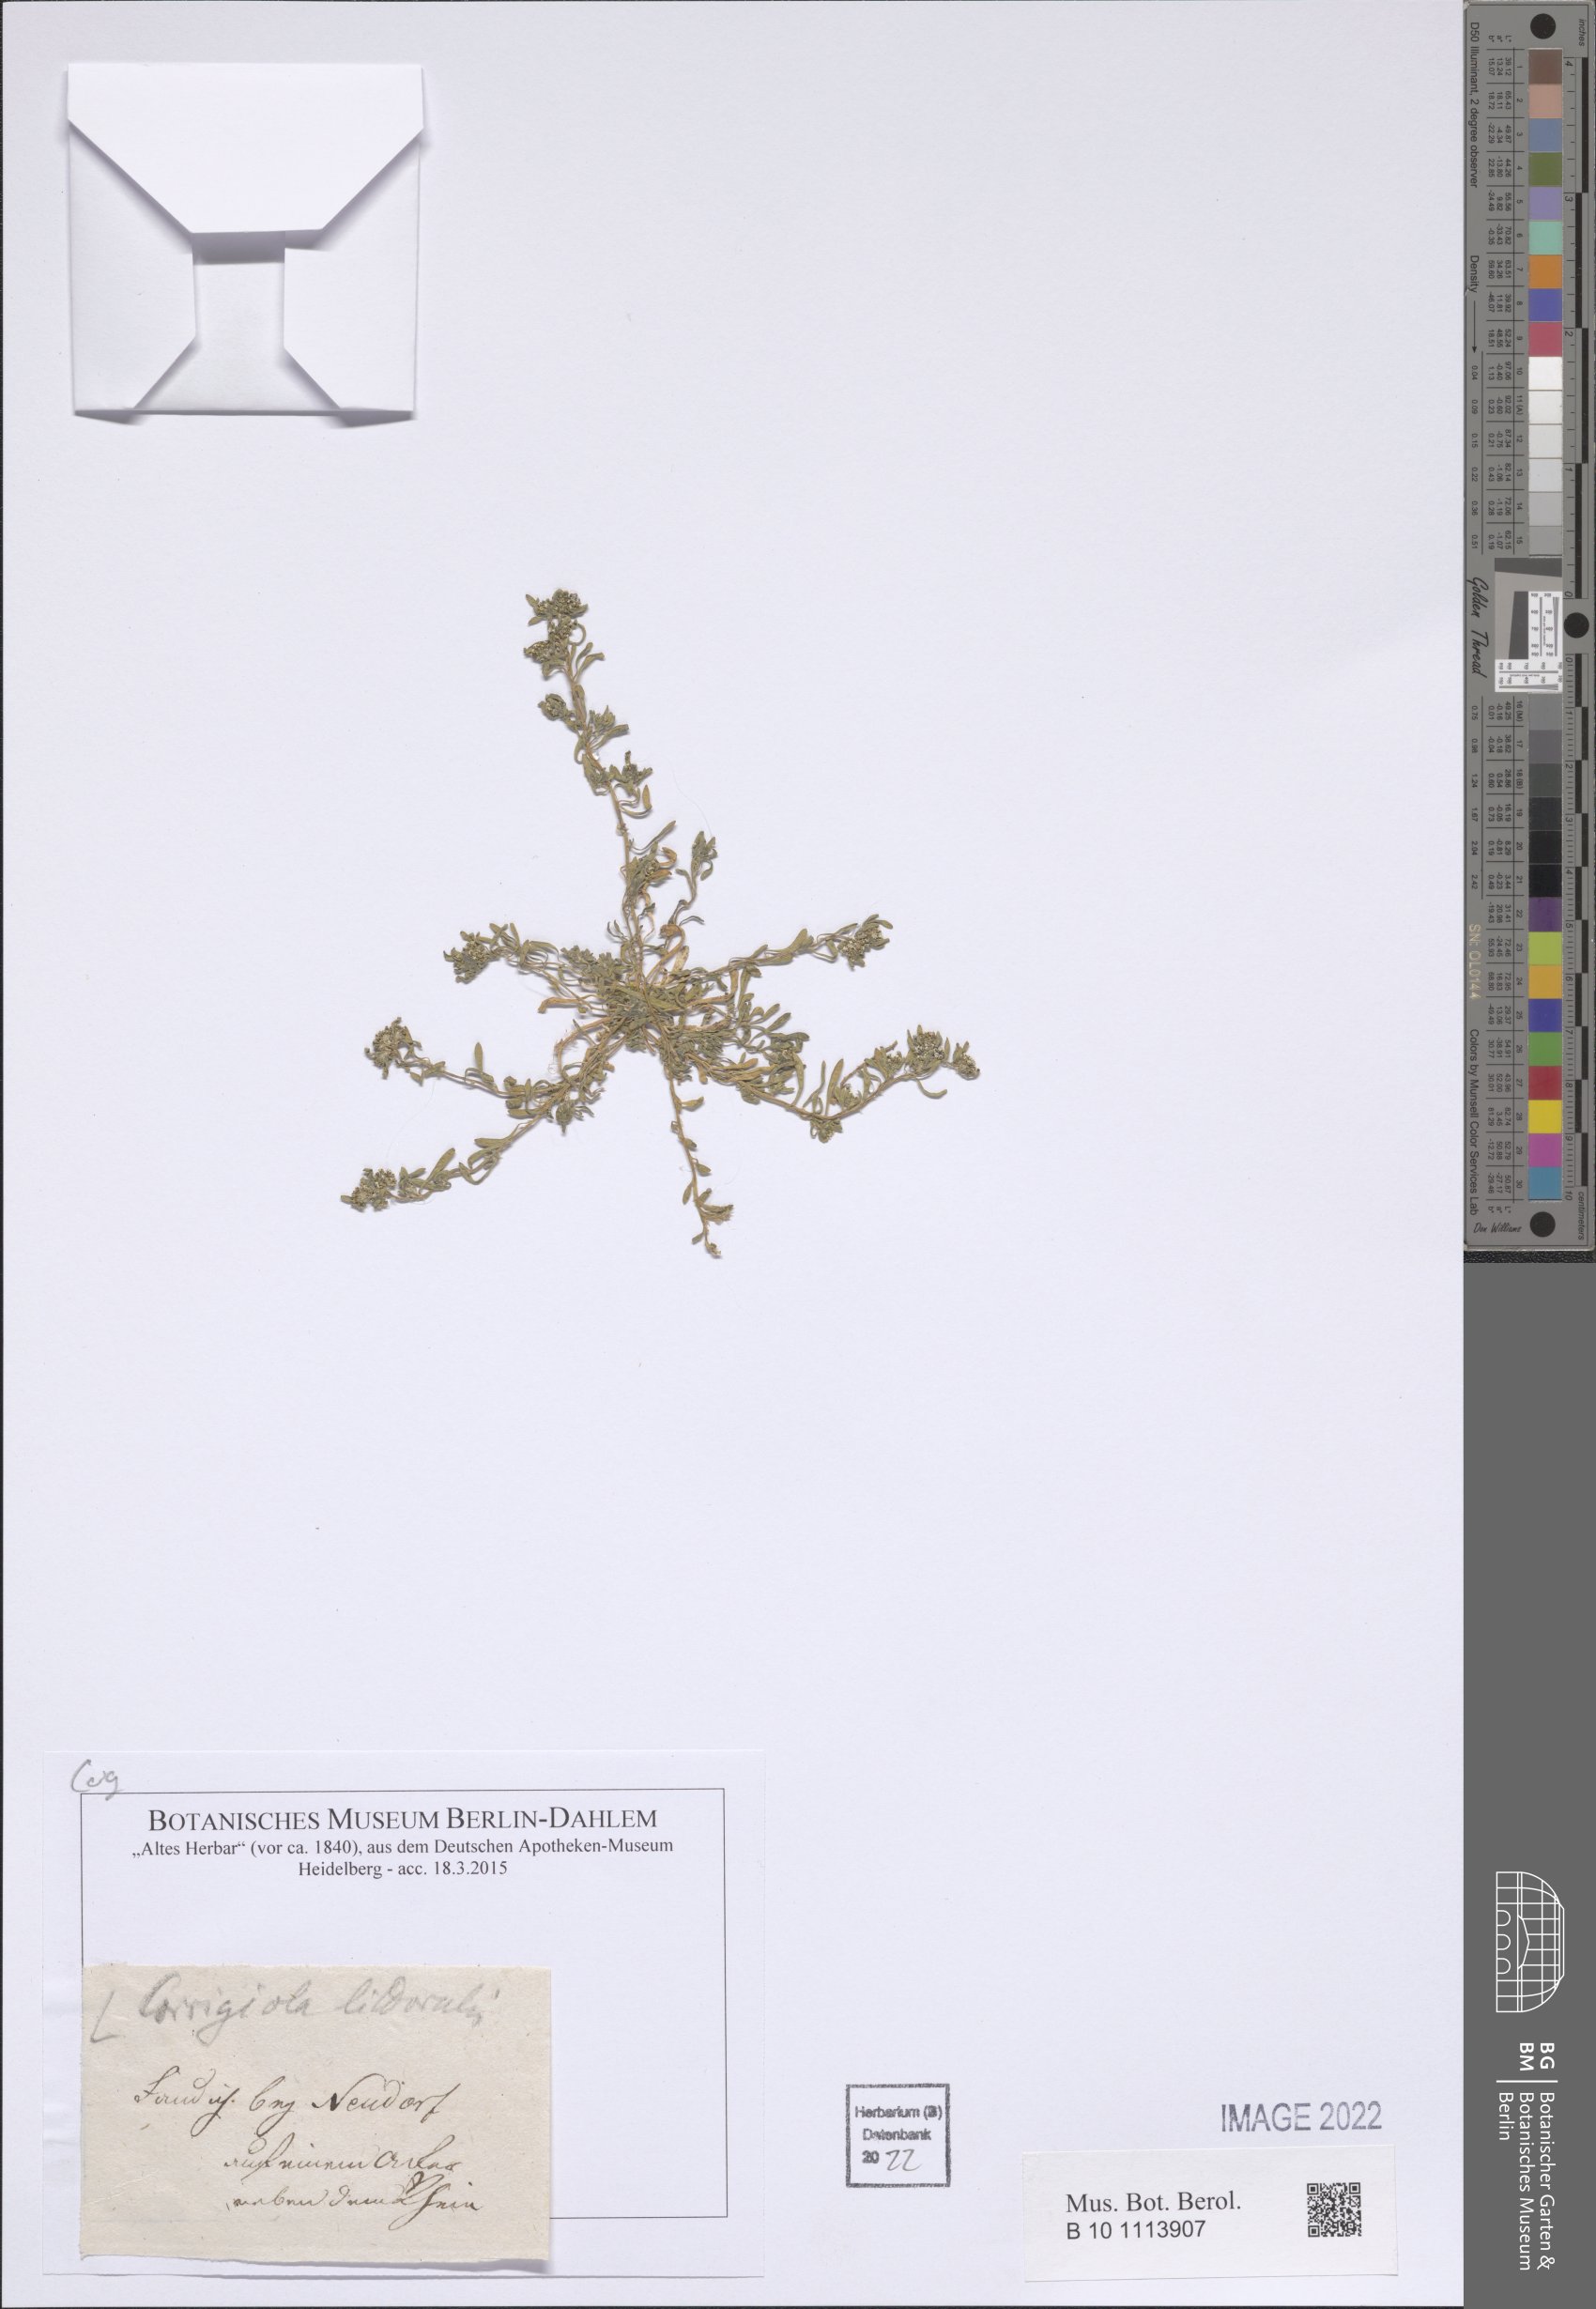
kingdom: Plantae
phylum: Tracheophyta
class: Magnoliopsida
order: Caryophyllales
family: Caryophyllaceae
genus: Corrigiola
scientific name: Corrigiola litoralis
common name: Strapwort
